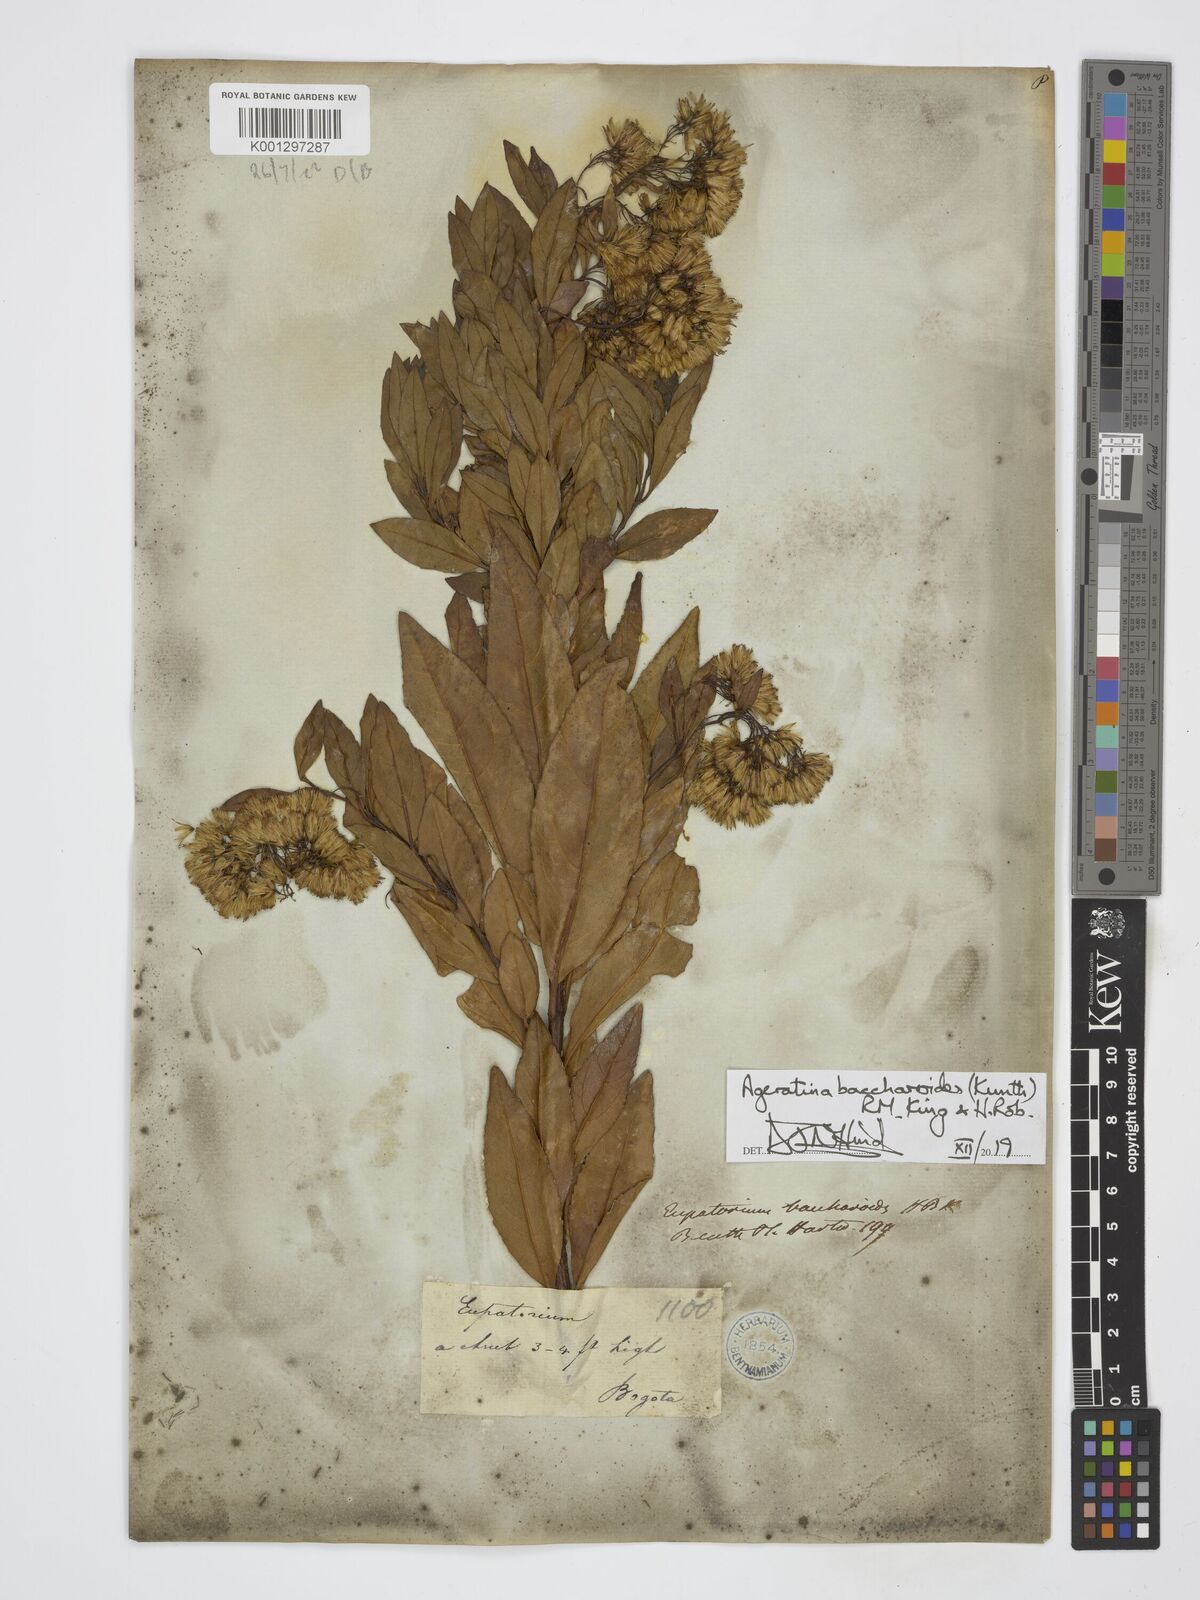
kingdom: Plantae
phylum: Tracheophyta
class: Magnoliopsida
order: Asterales
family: Asteraceae
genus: Ageratina
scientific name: Ageratina baccharoides
